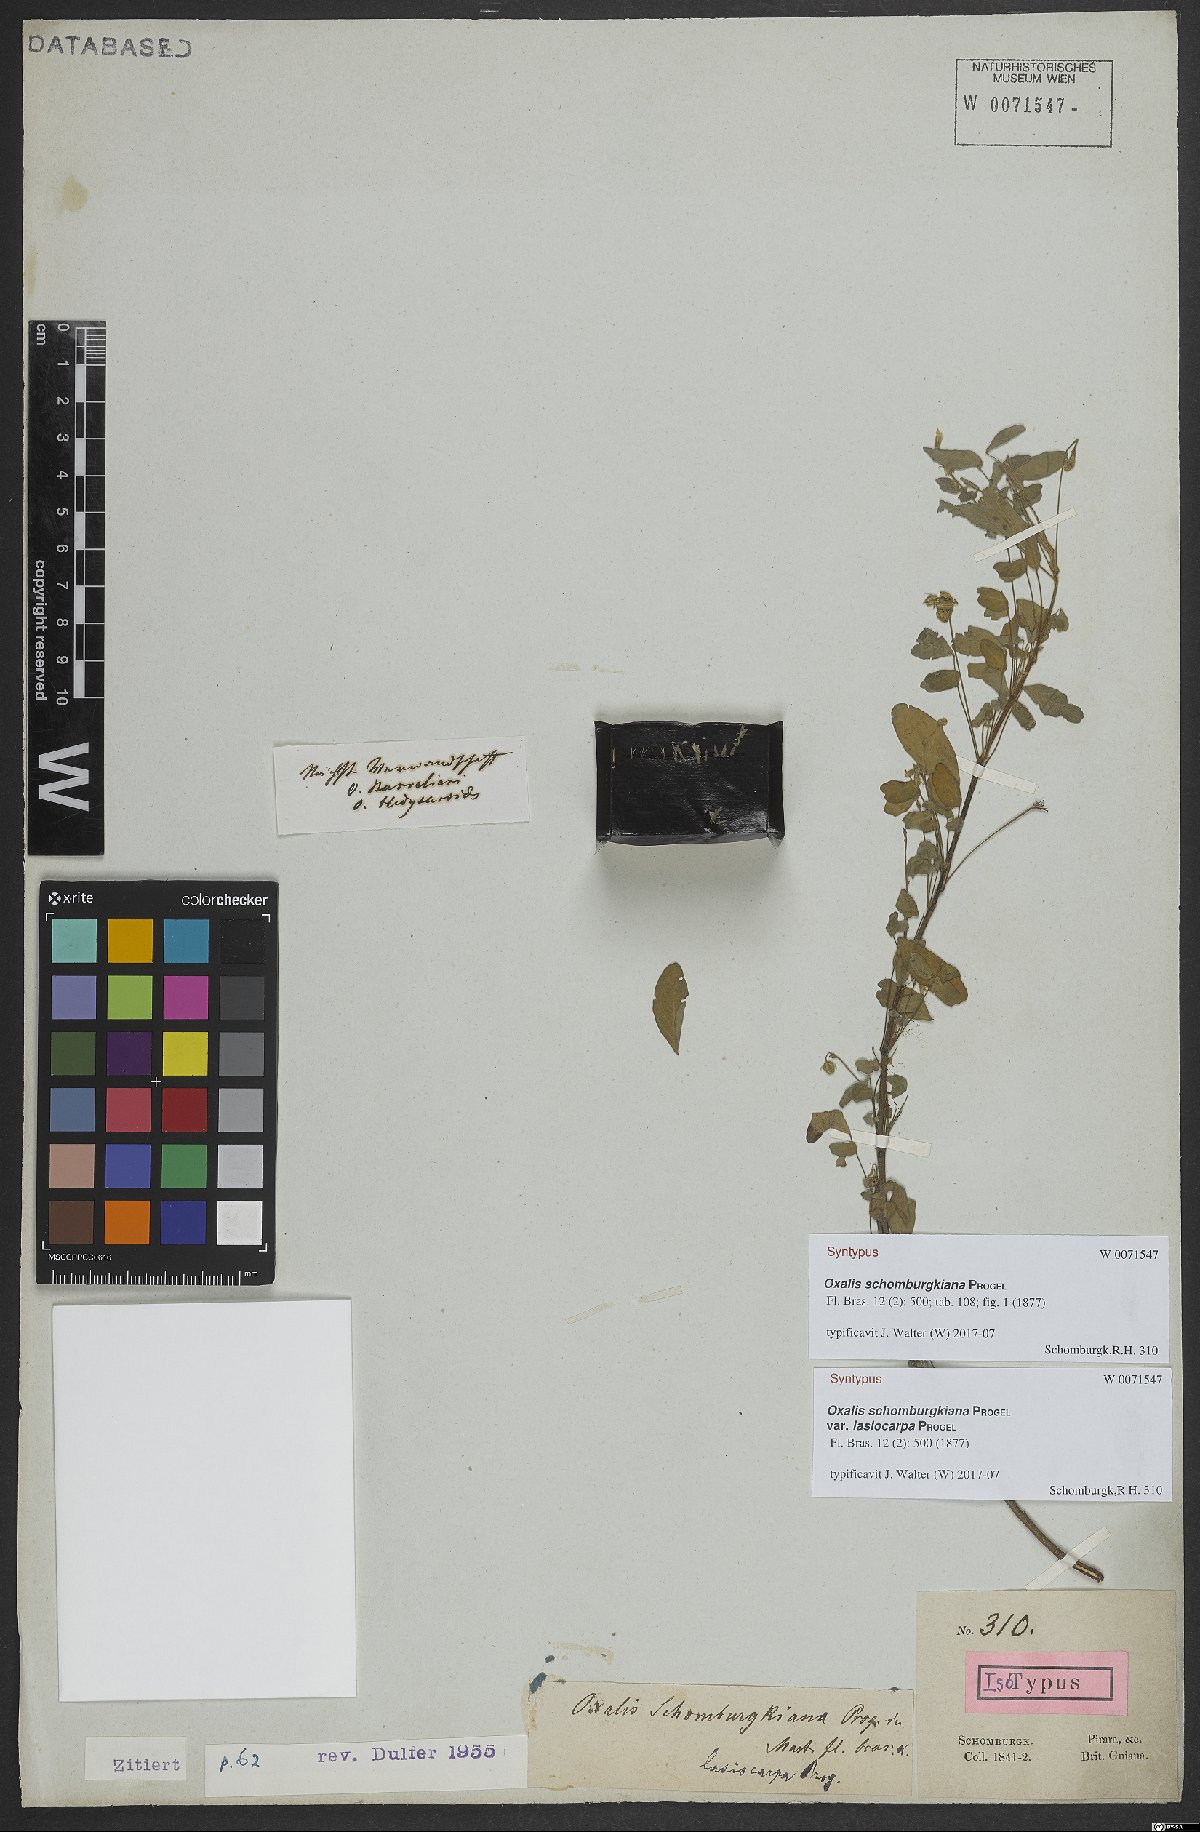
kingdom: Plantae
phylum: Tracheophyta
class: Magnoliopsida
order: Oxalidales
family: Oxalidaceae
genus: Oxalis
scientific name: Oxalis frutescens
